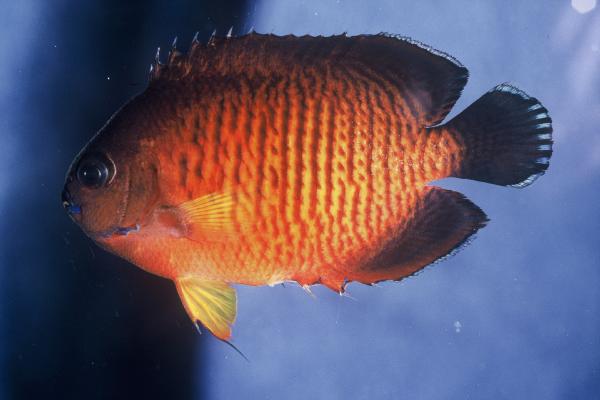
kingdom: Animalia
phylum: Chordata
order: Perciformes
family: Pomacanthidae
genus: Centropyge
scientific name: Centropyge bispinosa
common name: Coral beauty
